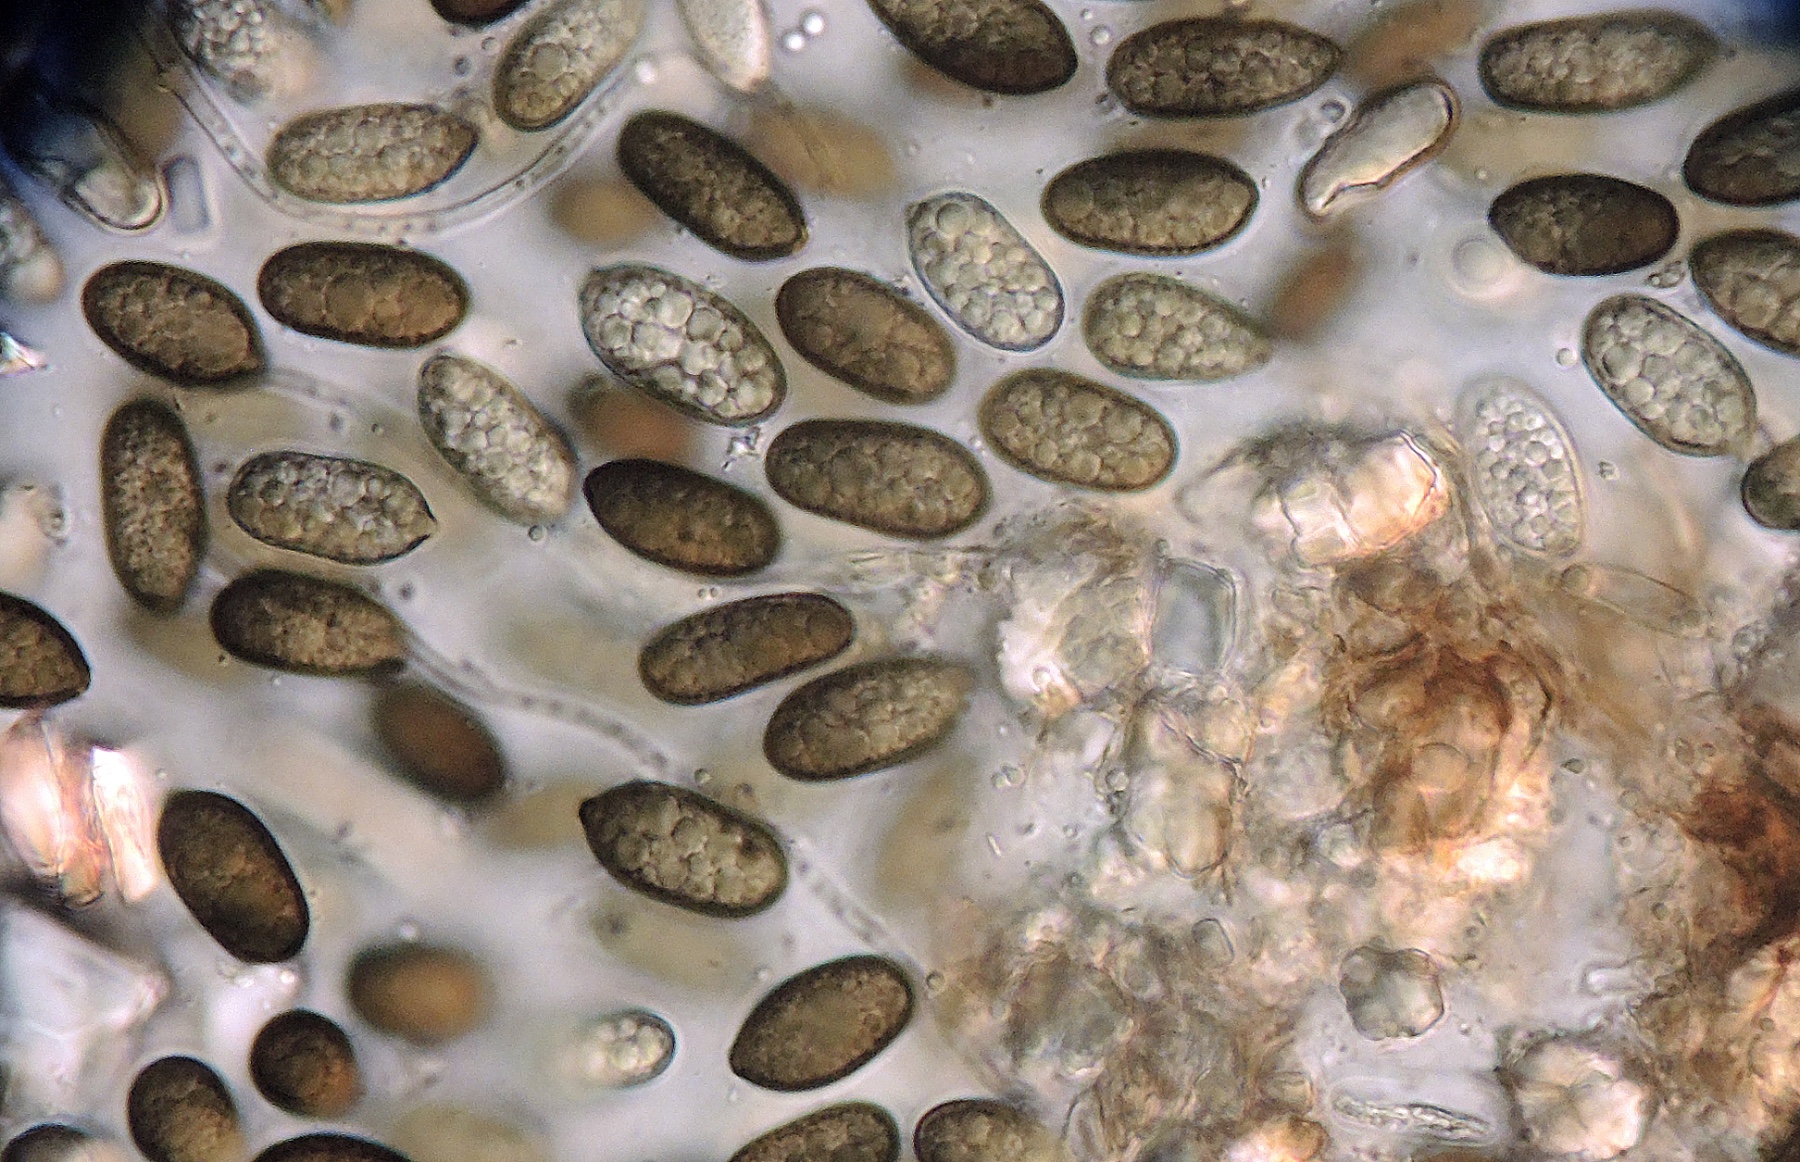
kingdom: Fungi
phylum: Ascomycota
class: Sordariomycetes
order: Diaporthales
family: Juglanconidaceae
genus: Juglanconis
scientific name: Juglanconis pterocaryae
